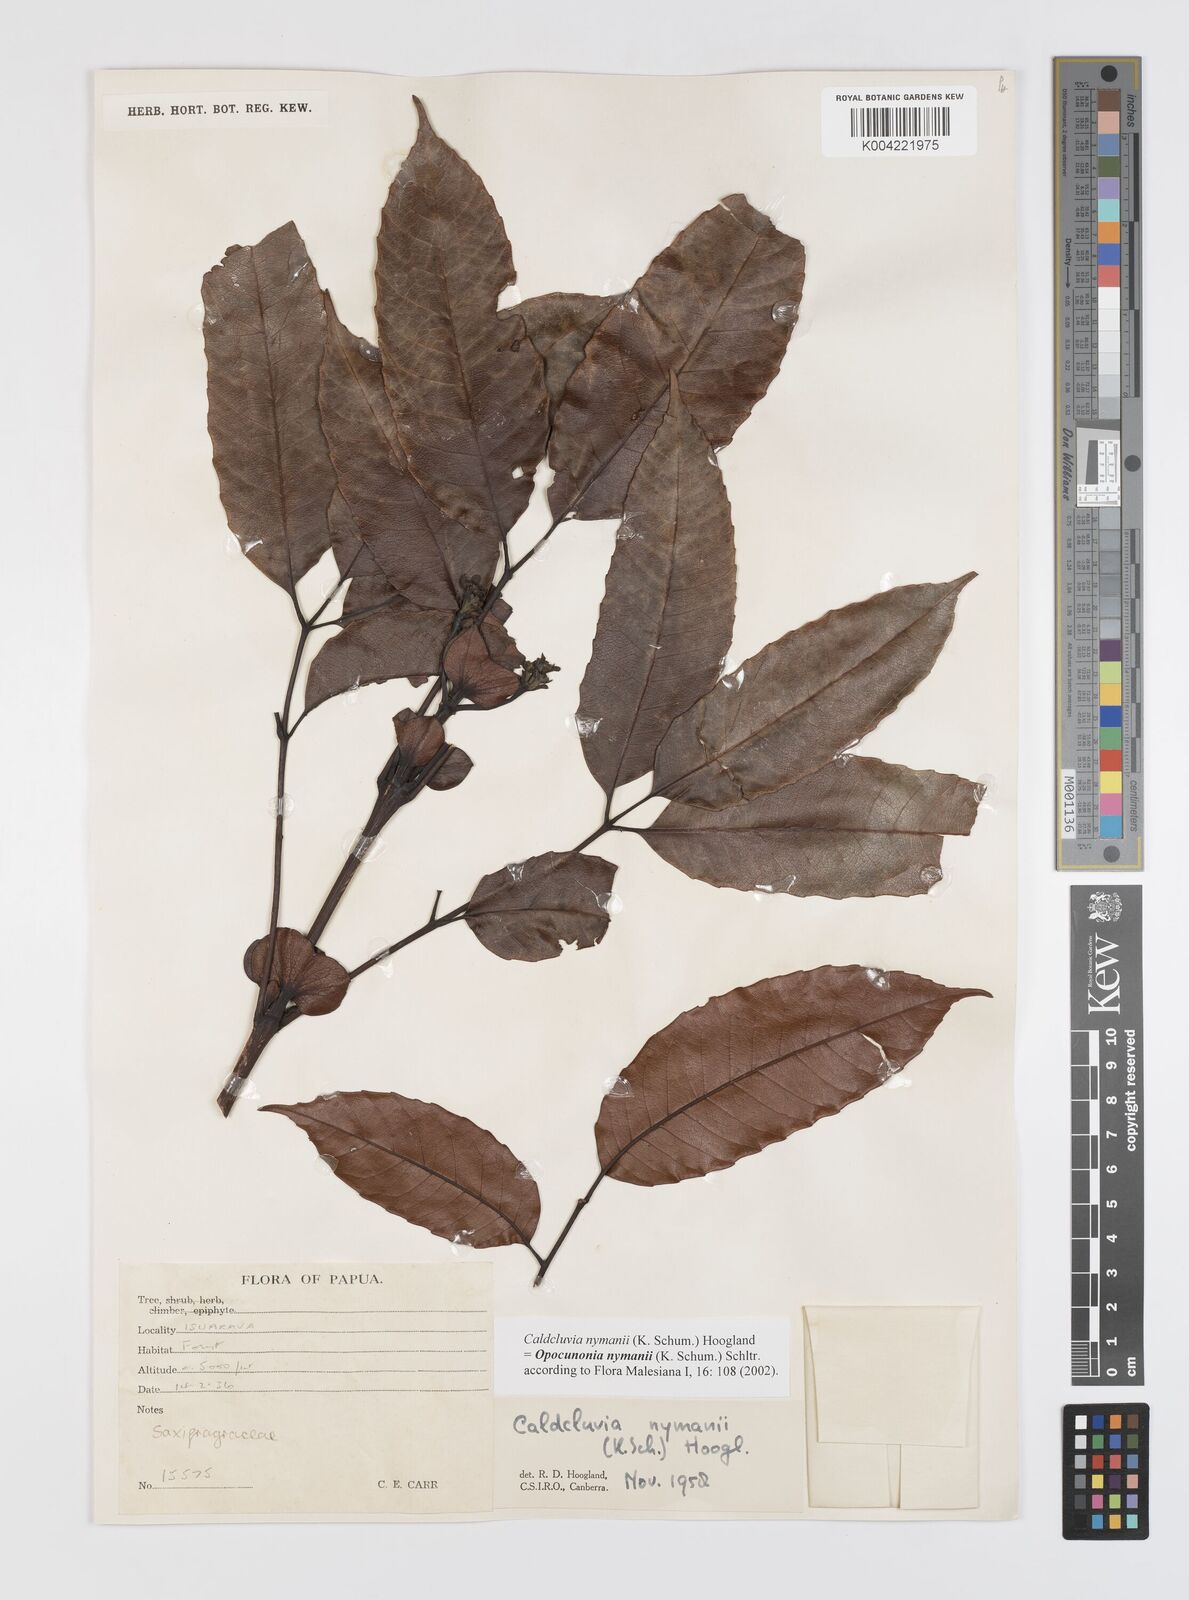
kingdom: Plantae
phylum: Tracheophyta
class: Magnoliopsida
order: Oxalidales
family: Cunoniaceae
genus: Opocunonia
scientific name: Opocunonia nymanii
